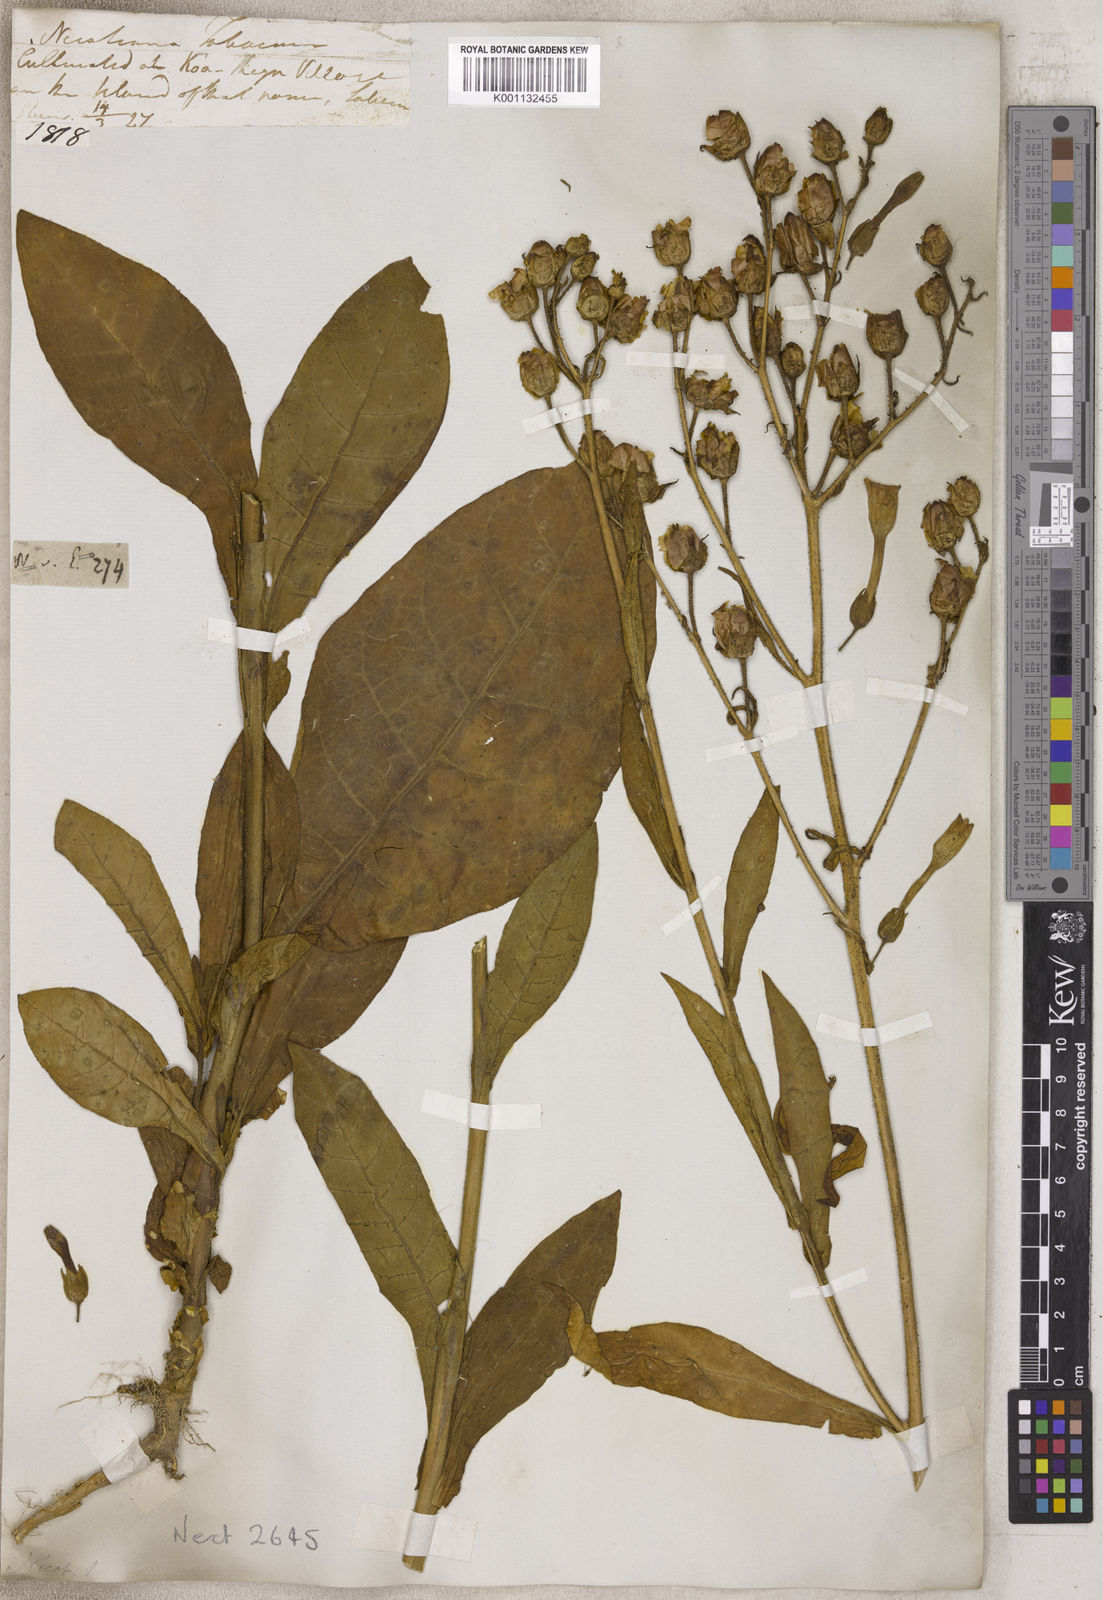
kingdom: Plantae
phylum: Tracheophyta
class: Magnoliopsida
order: Solanales
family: Solanaceae
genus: Nicotiana
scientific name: Nicotiana
